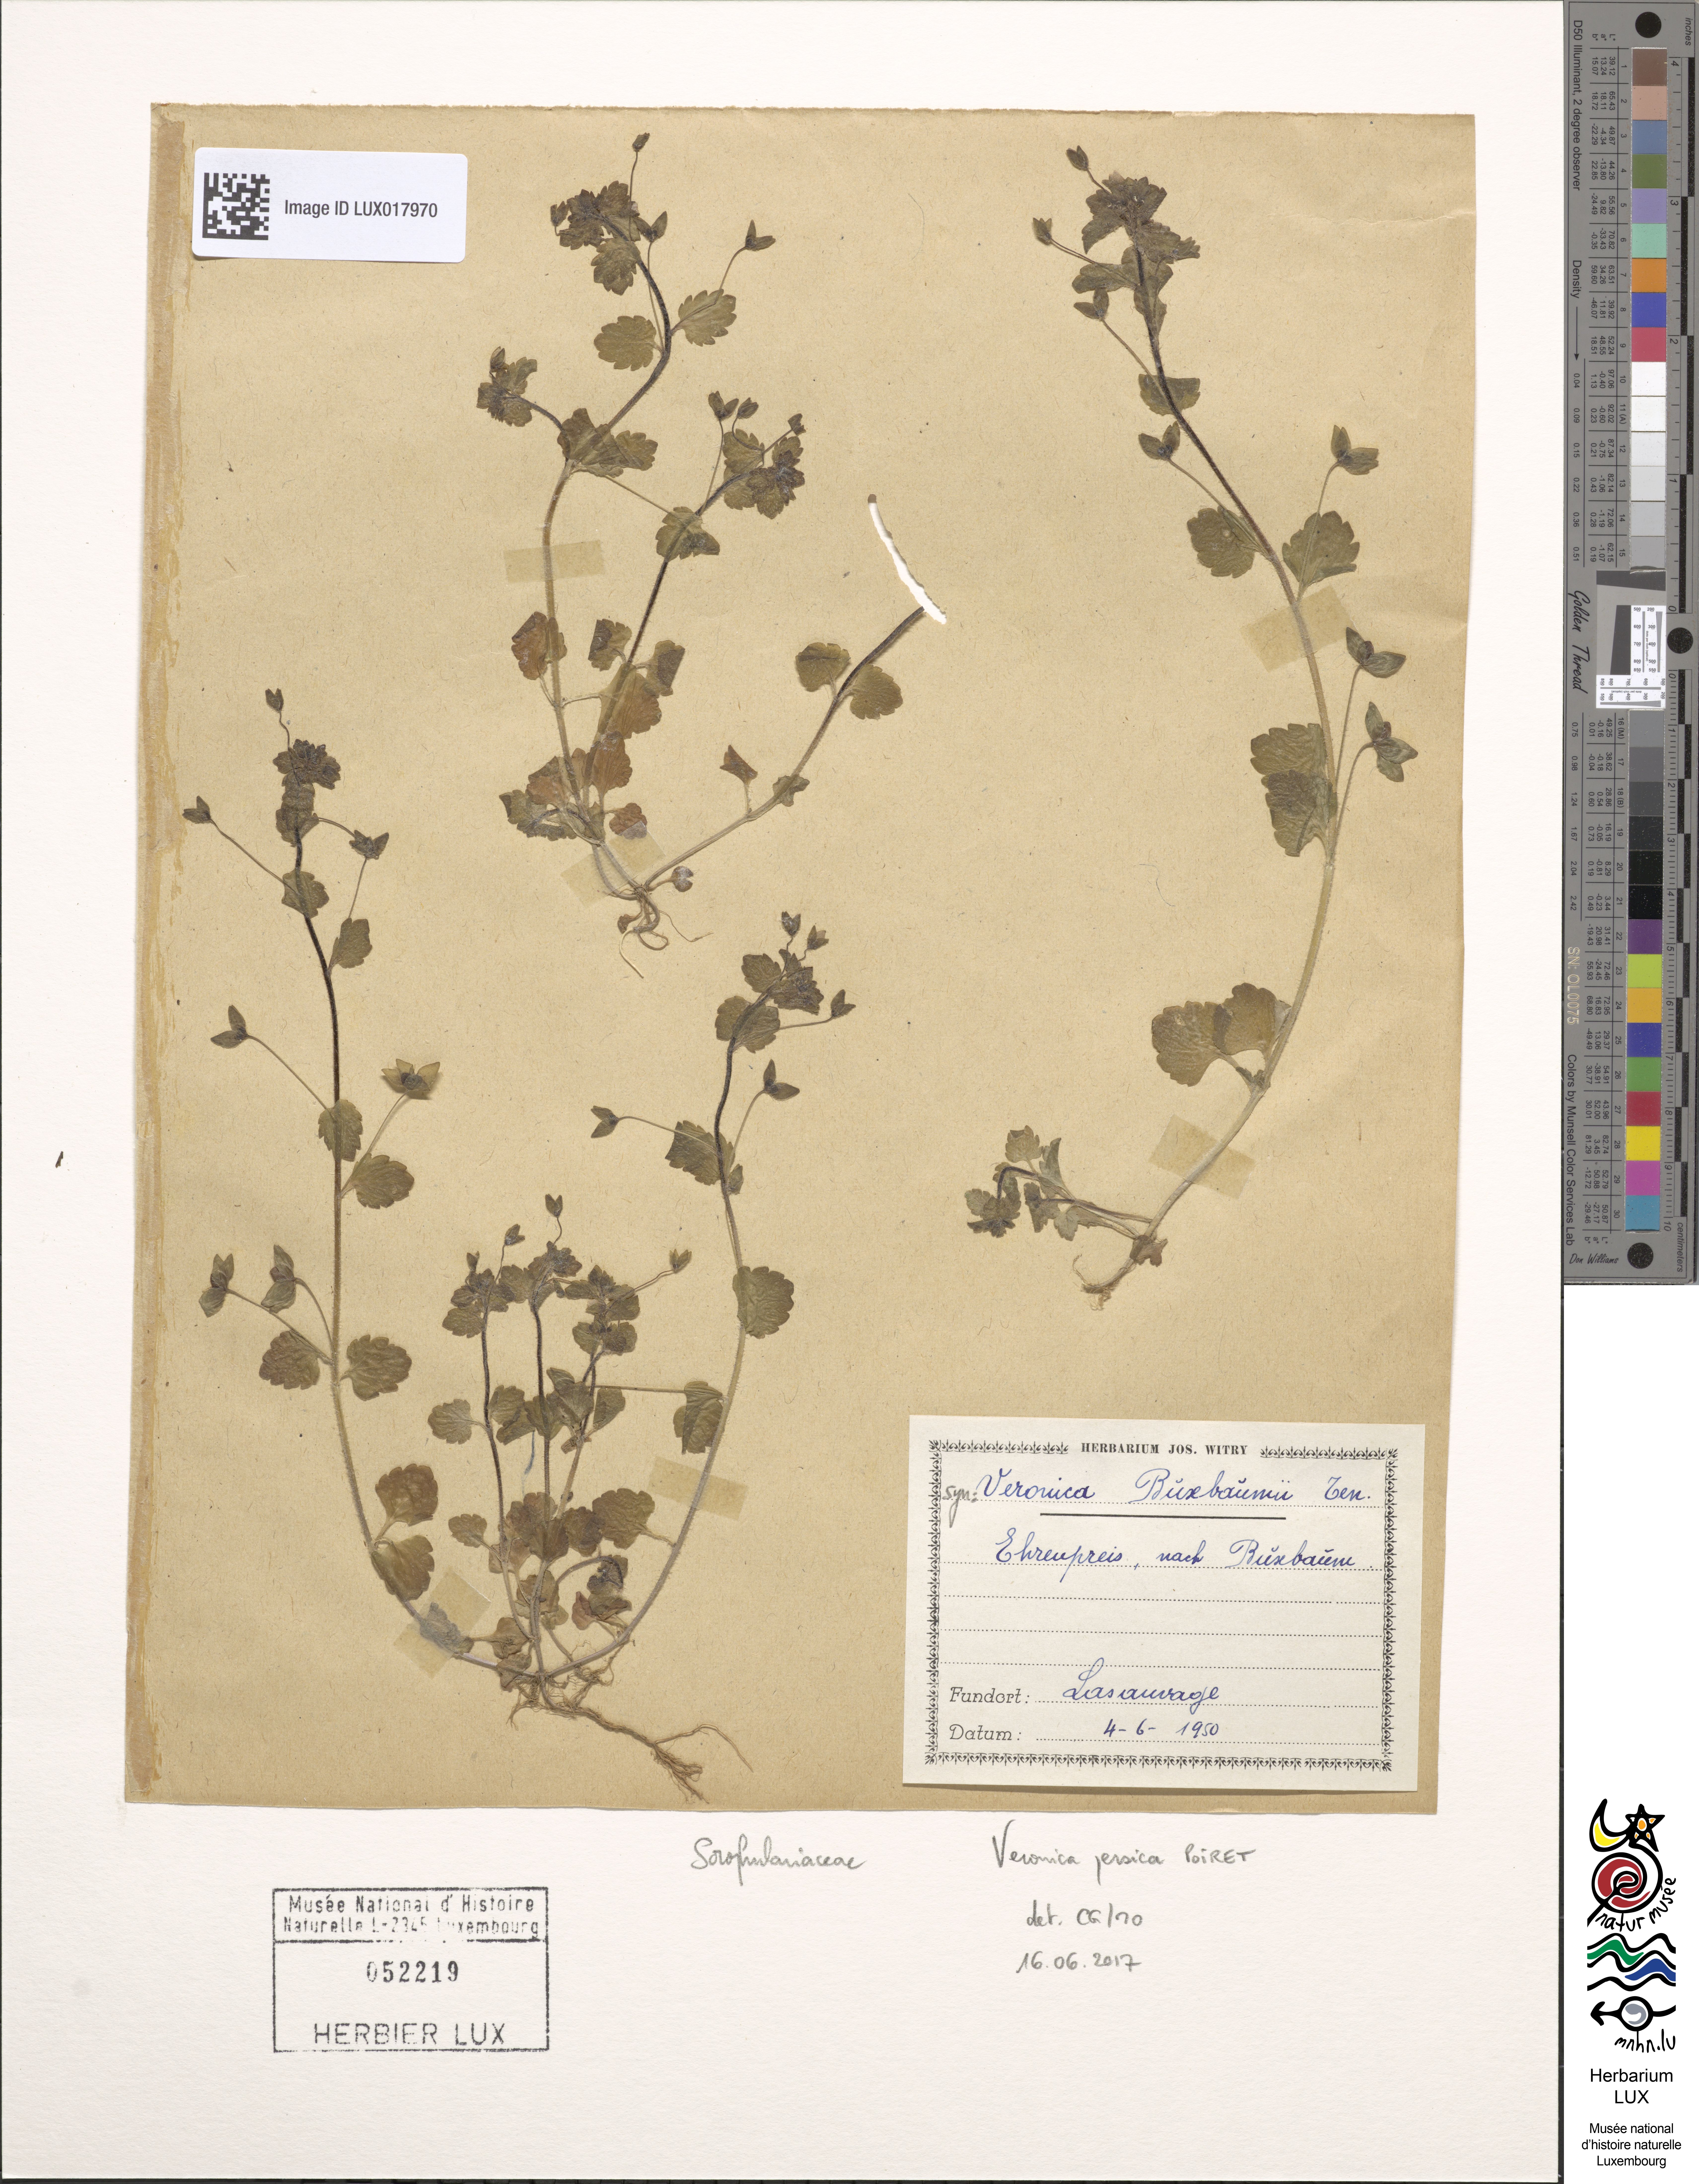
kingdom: Plantae
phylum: Tracheophyta
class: Magnoliopsida
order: Lamiales
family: Plantaginaceae
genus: Veronica
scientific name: Veronica persica
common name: Common field-speedwell
